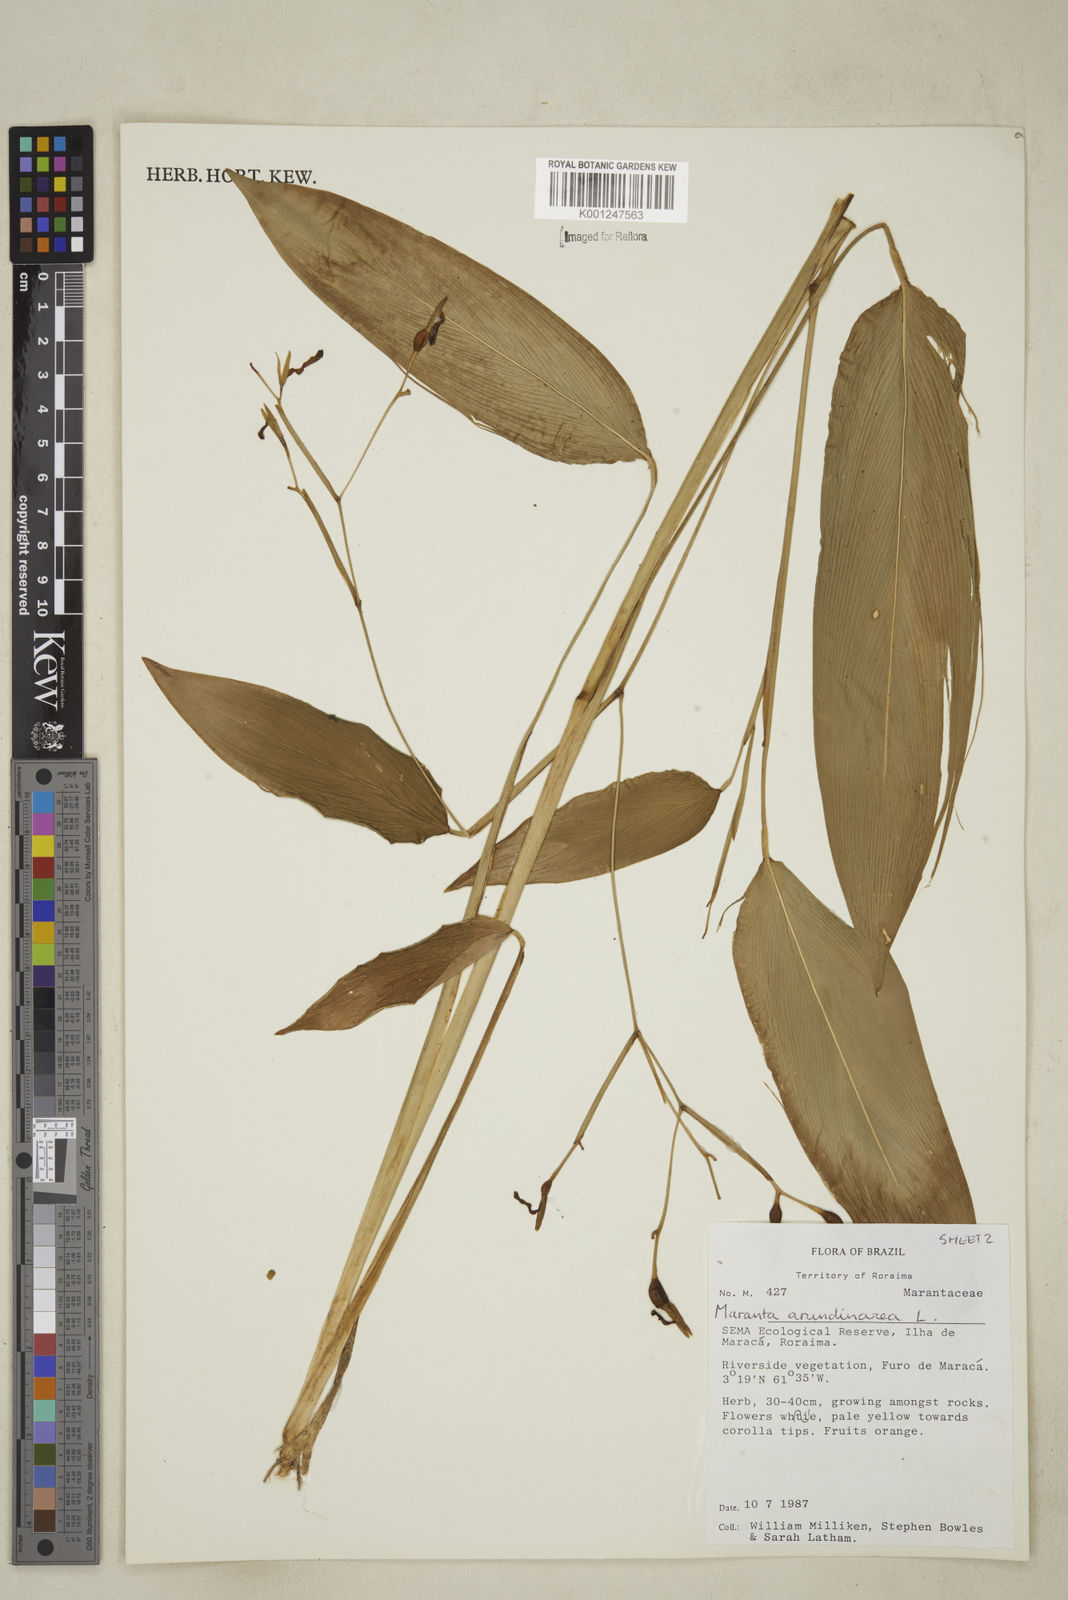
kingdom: Plantae
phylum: Tracheophyta
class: Liliopsida
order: Zingiberales
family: Marantaceae
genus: Maranta
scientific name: Maranta arundinacea
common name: Arrowroot
